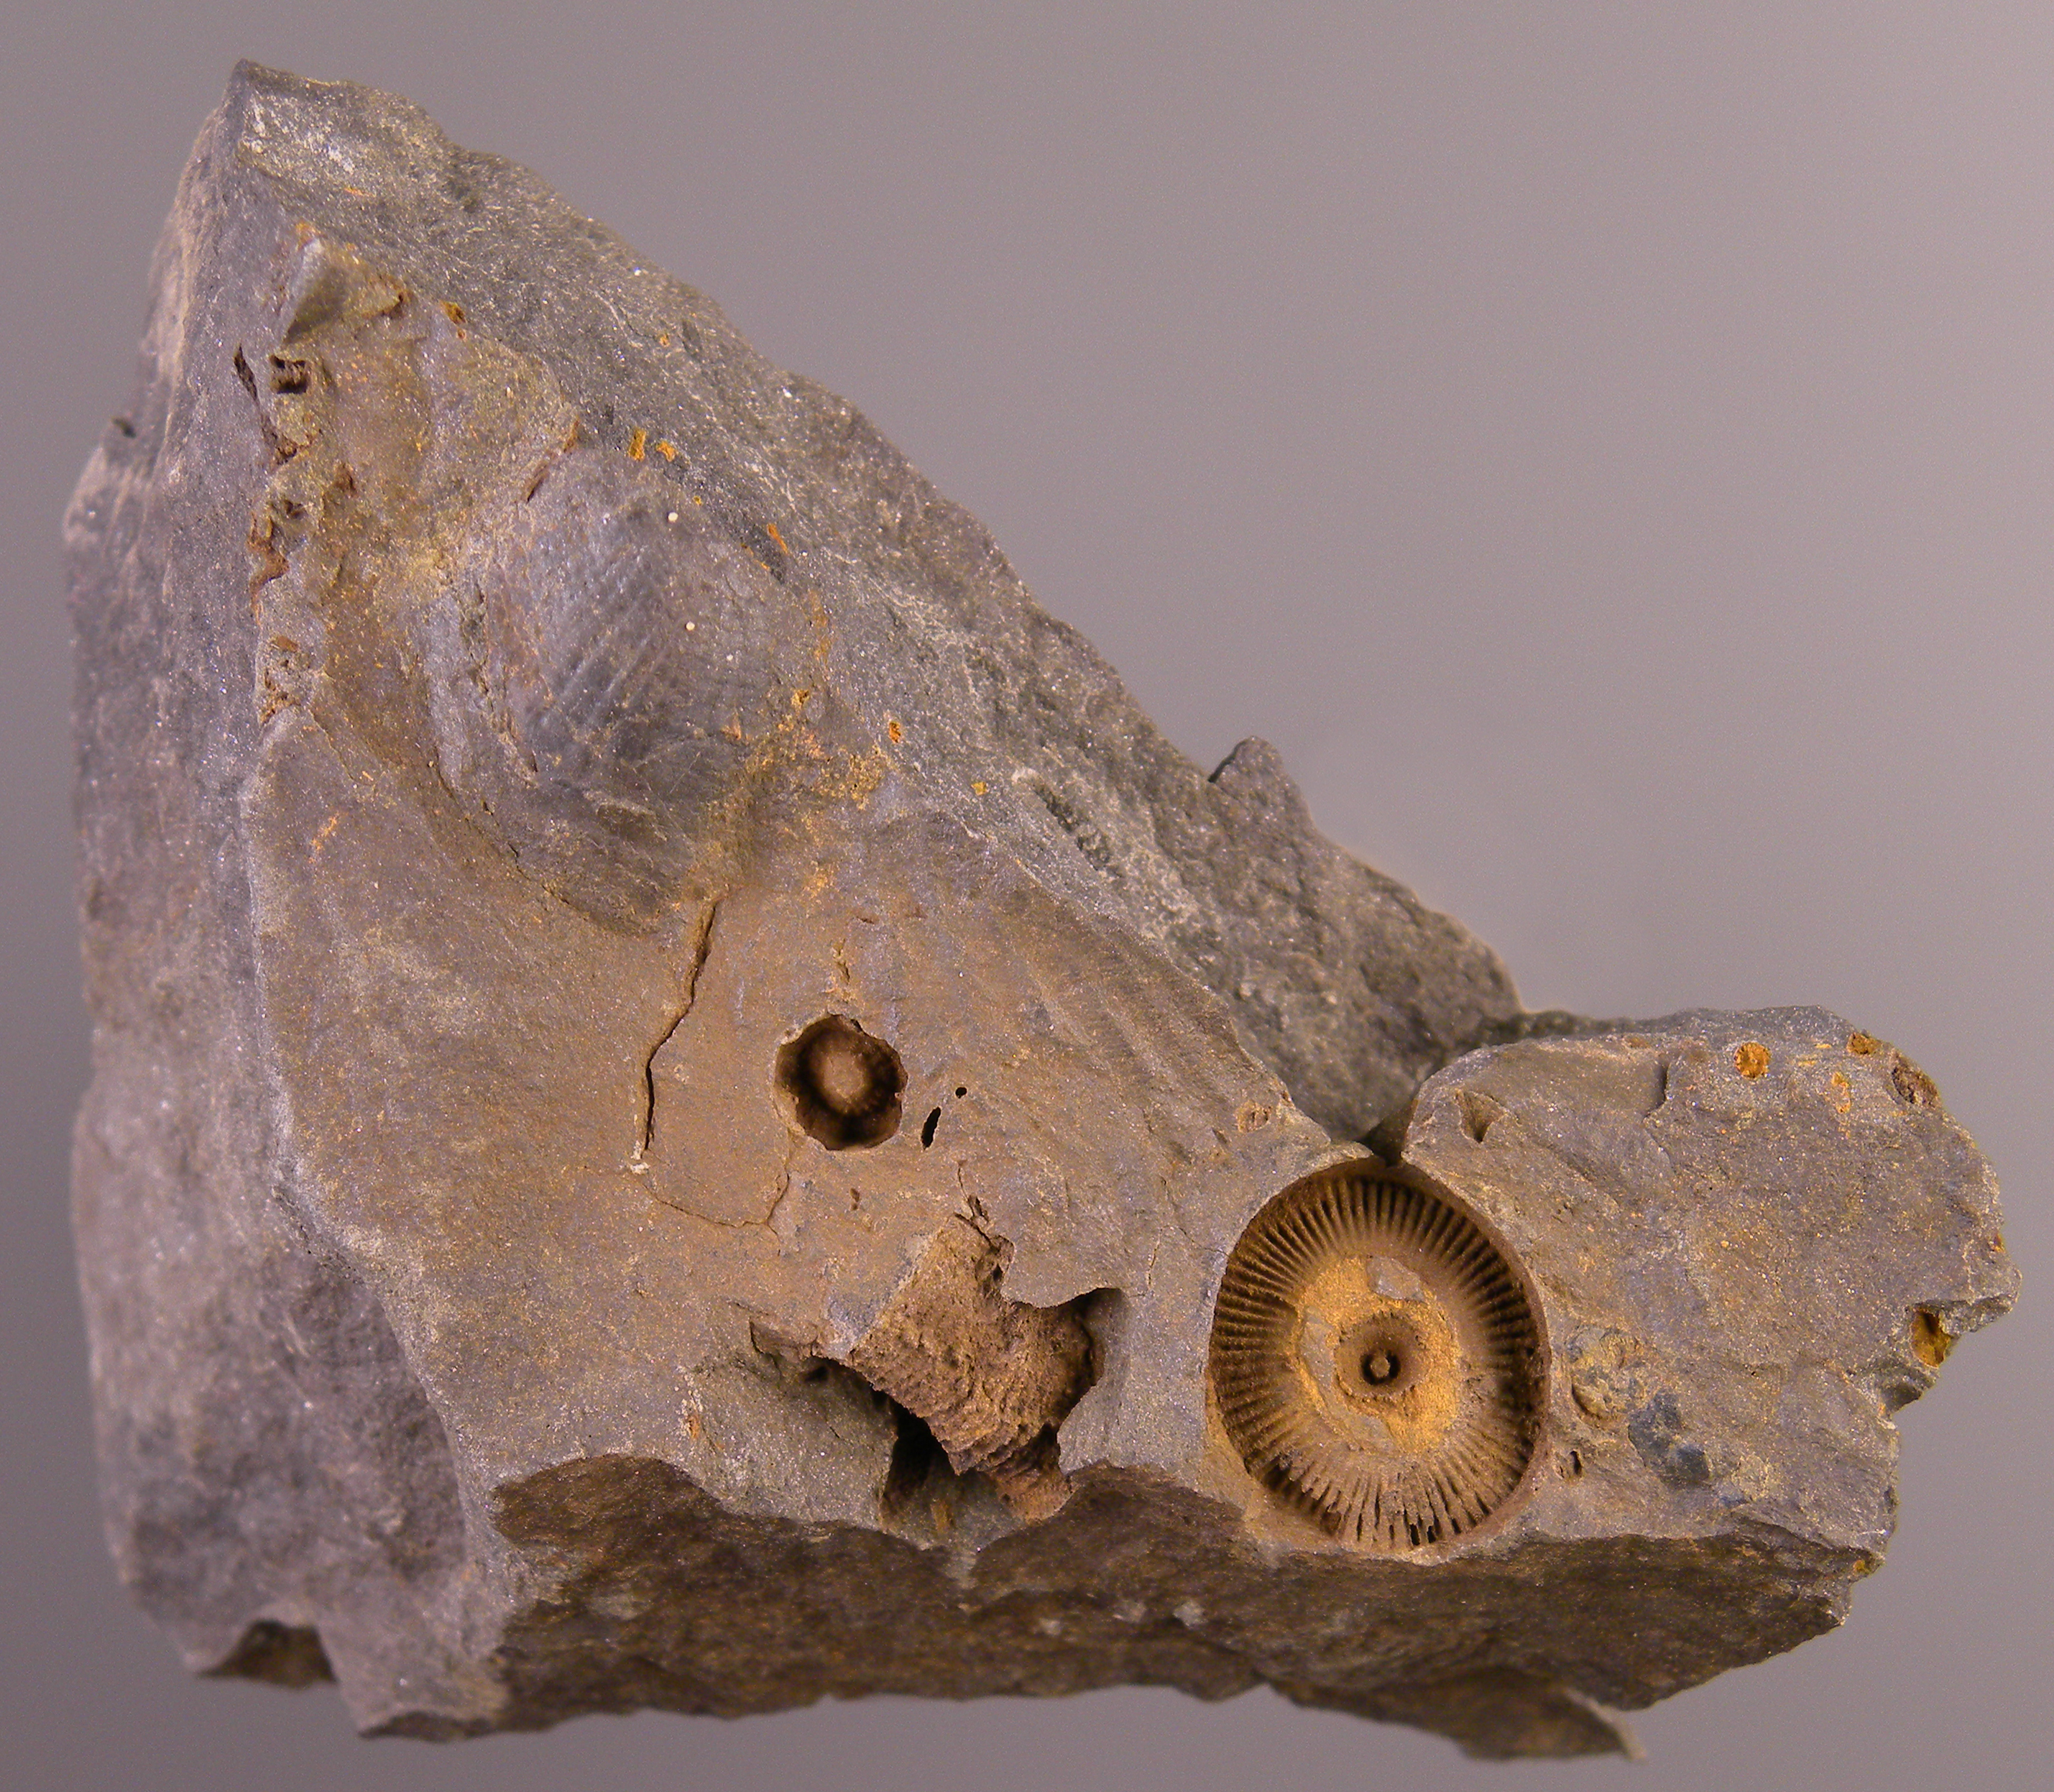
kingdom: Animalia
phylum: Echinodermata
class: Crinoidea
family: Melocrinitidae
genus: Ctenocrinus
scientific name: Ctenocrinus
